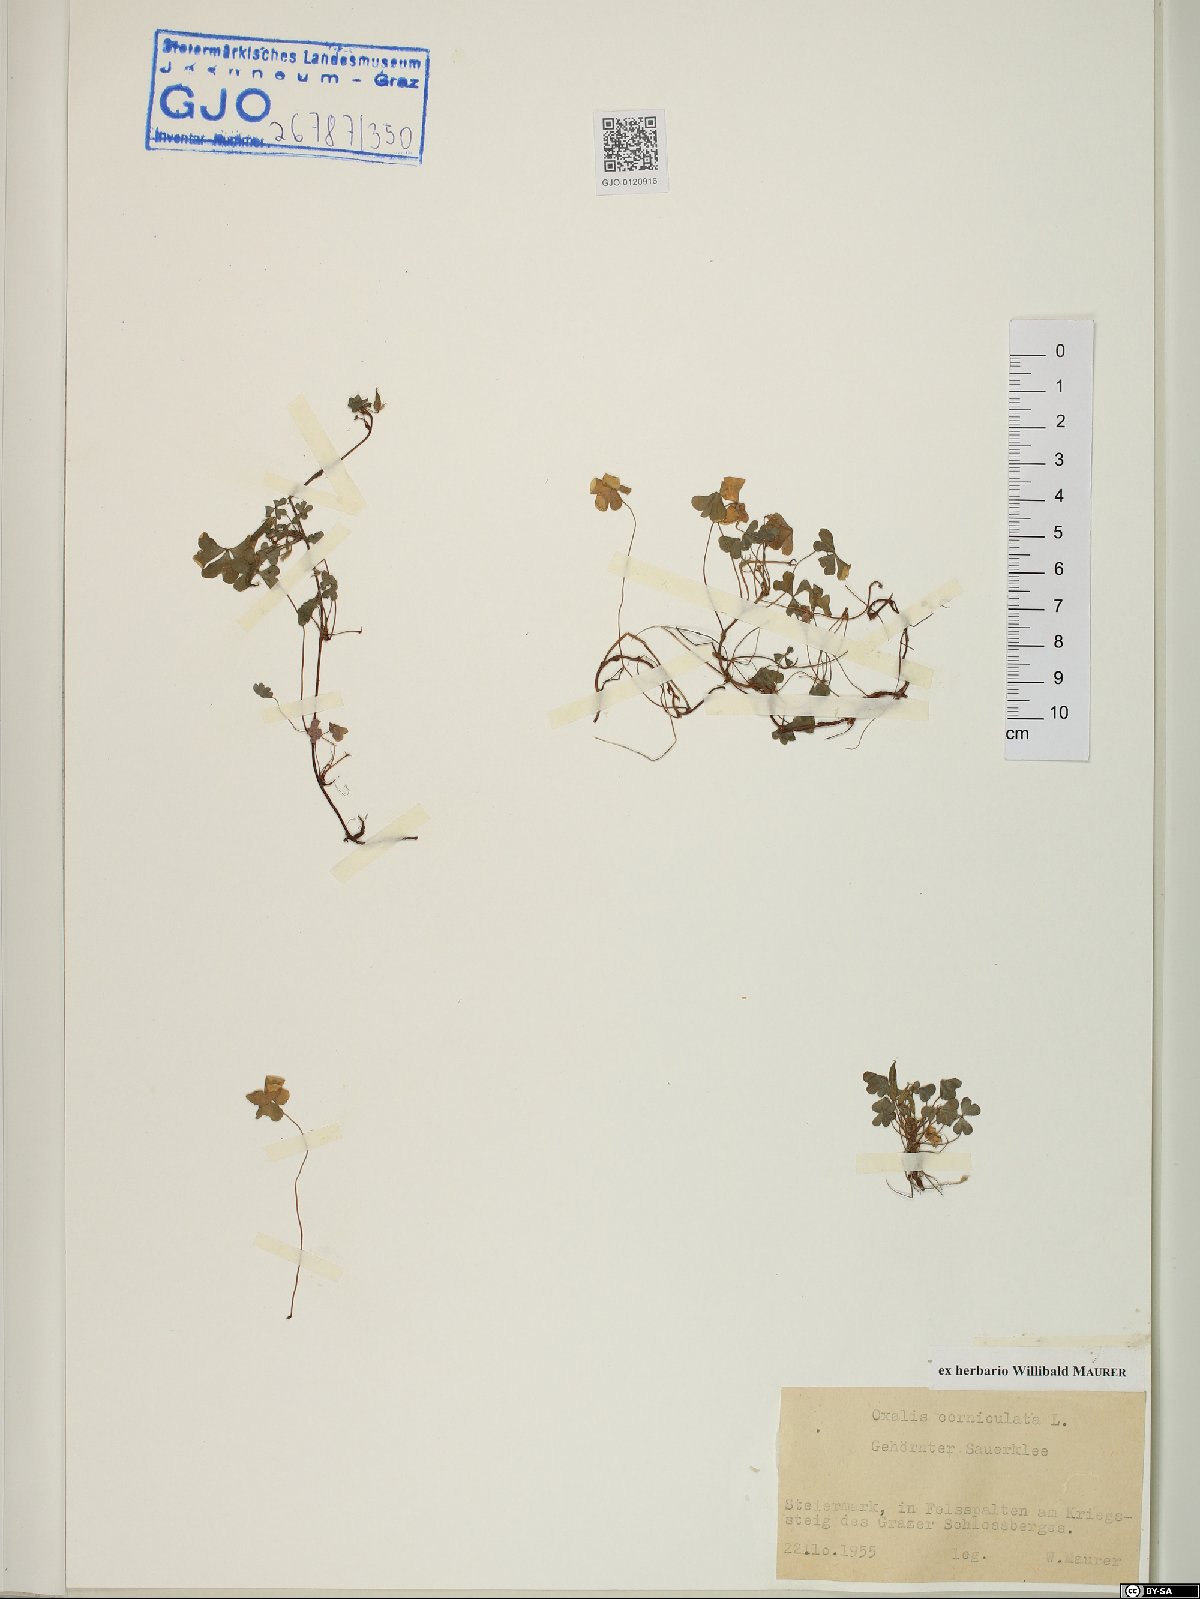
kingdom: Plantae
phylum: Tracheophyta
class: Magnoliopsida
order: Oxalidales
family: Oxalidaceae
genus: Oxalis
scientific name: Oxalis corniculata
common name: Procumbent yellow-sorrel
